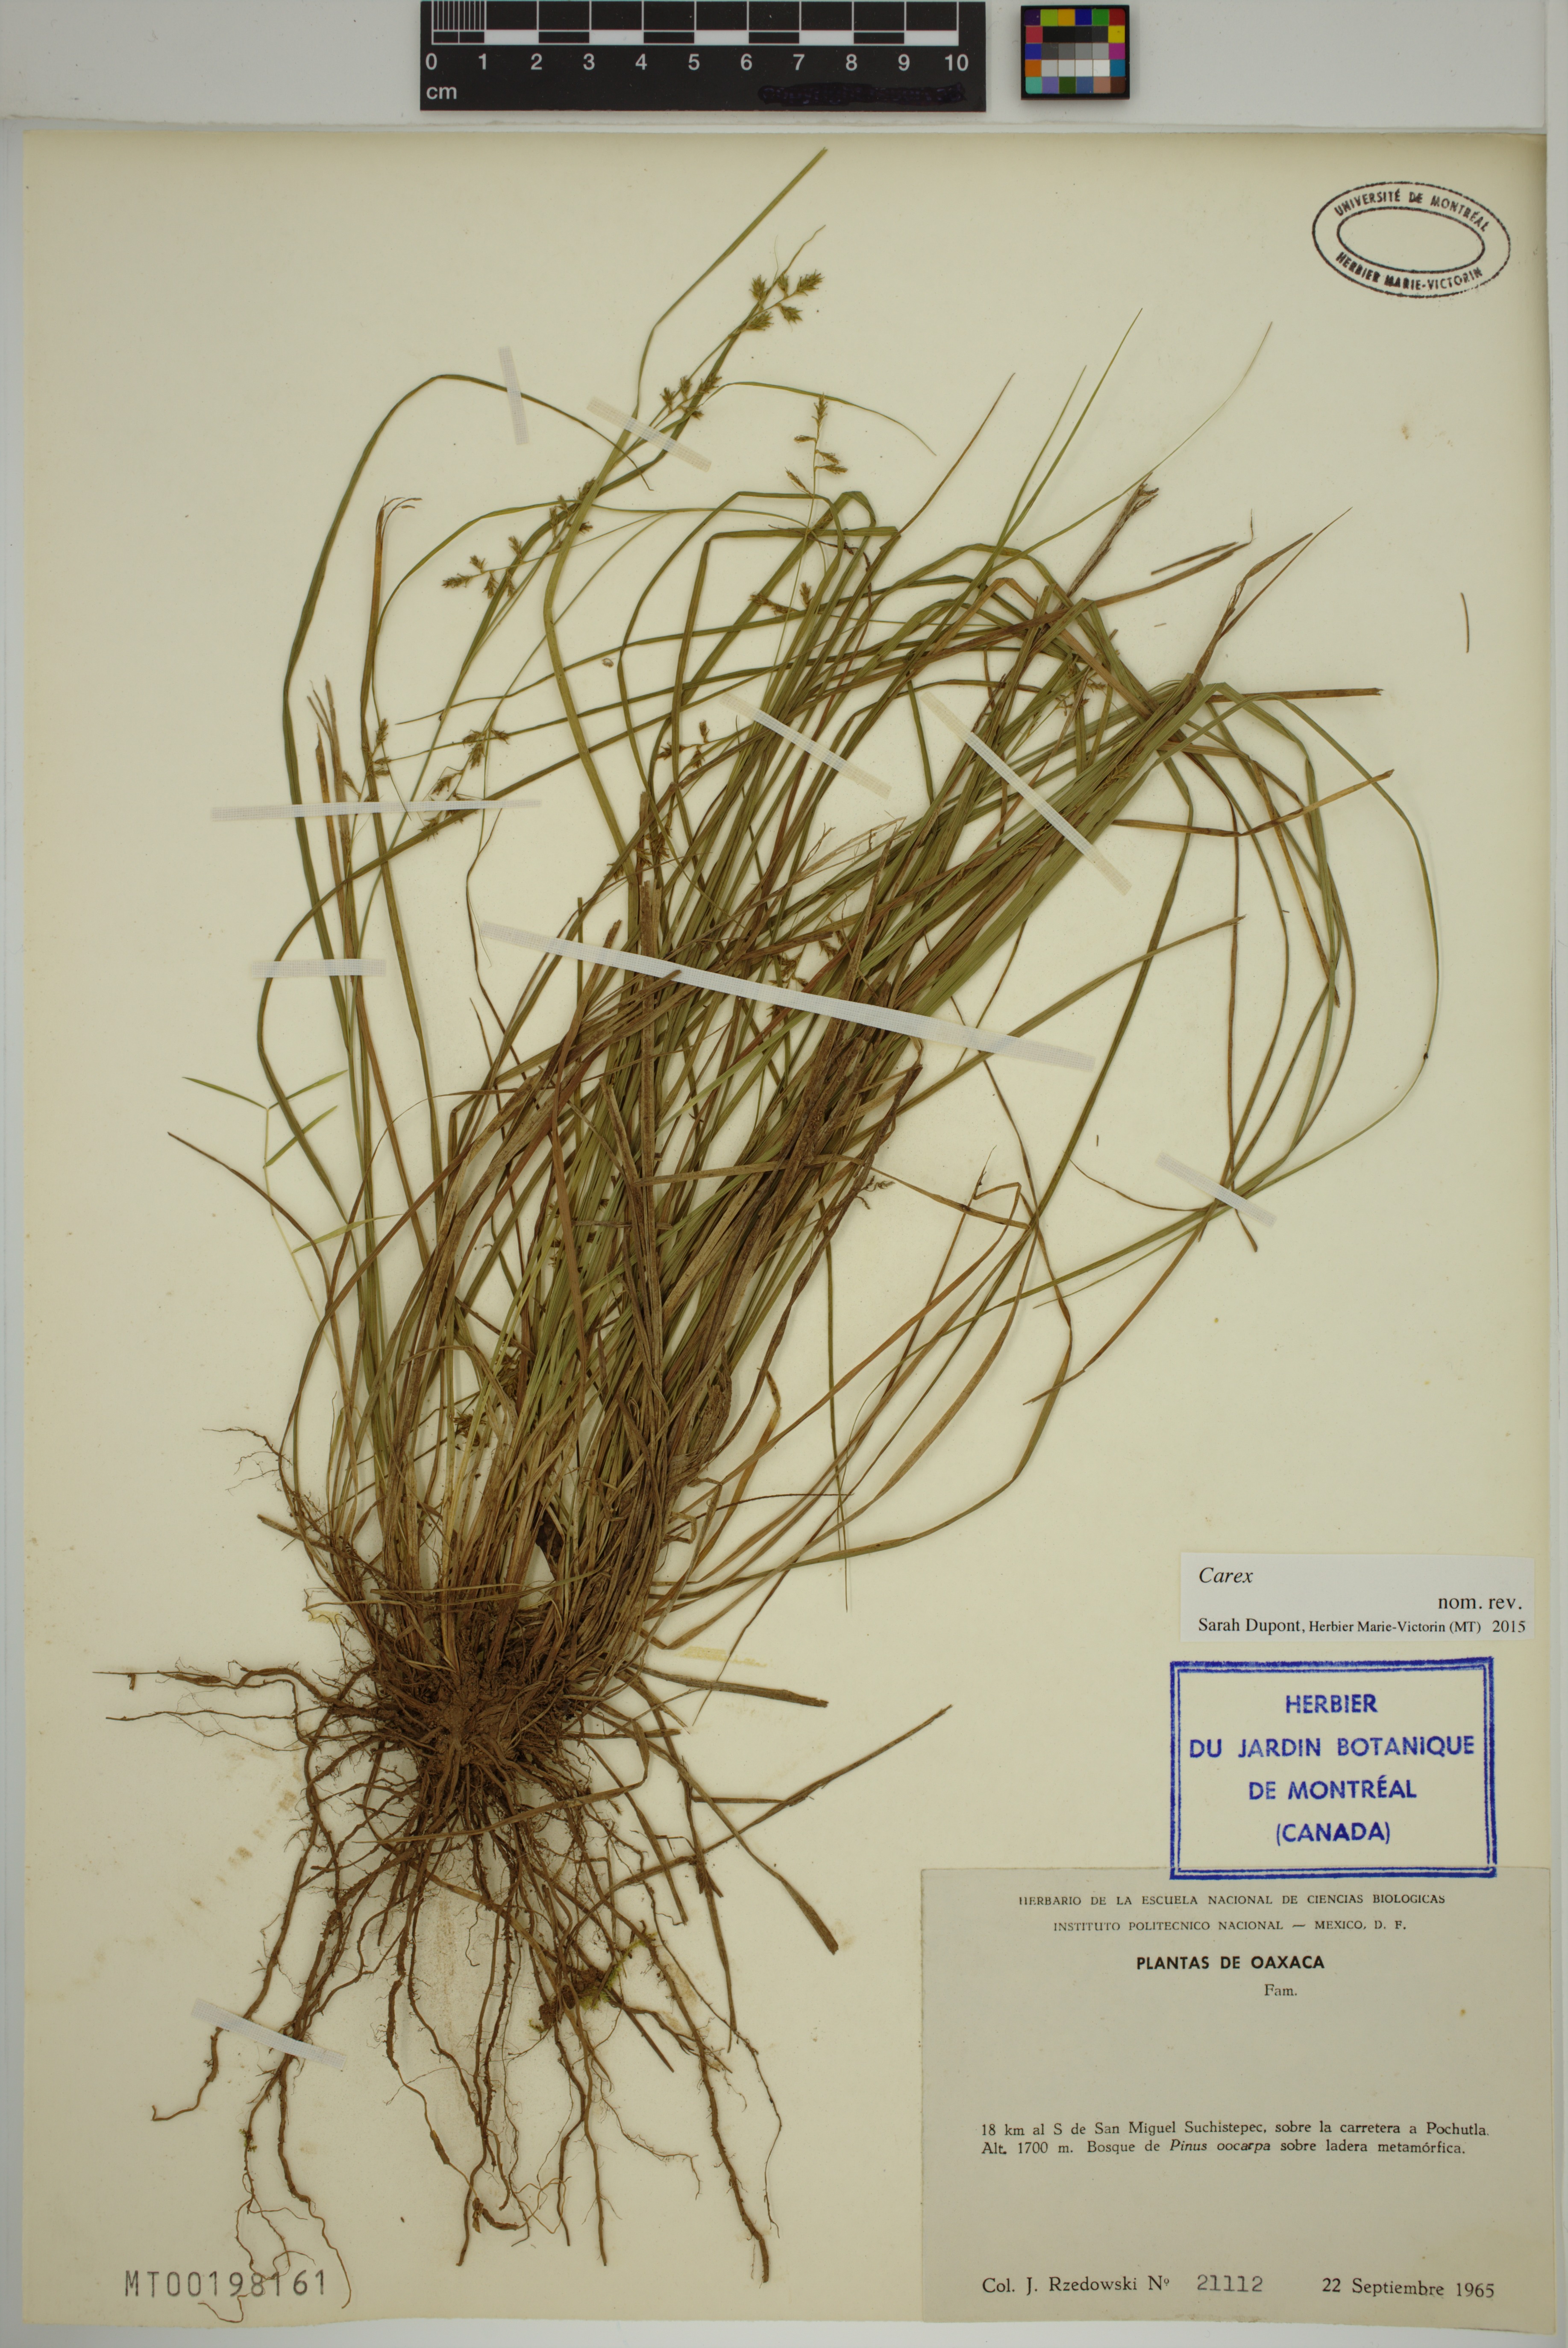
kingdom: Plantae
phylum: Tracheophyta
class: Liliopsida
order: Poales
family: Cyperaceae
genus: Carex
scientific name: Carex
